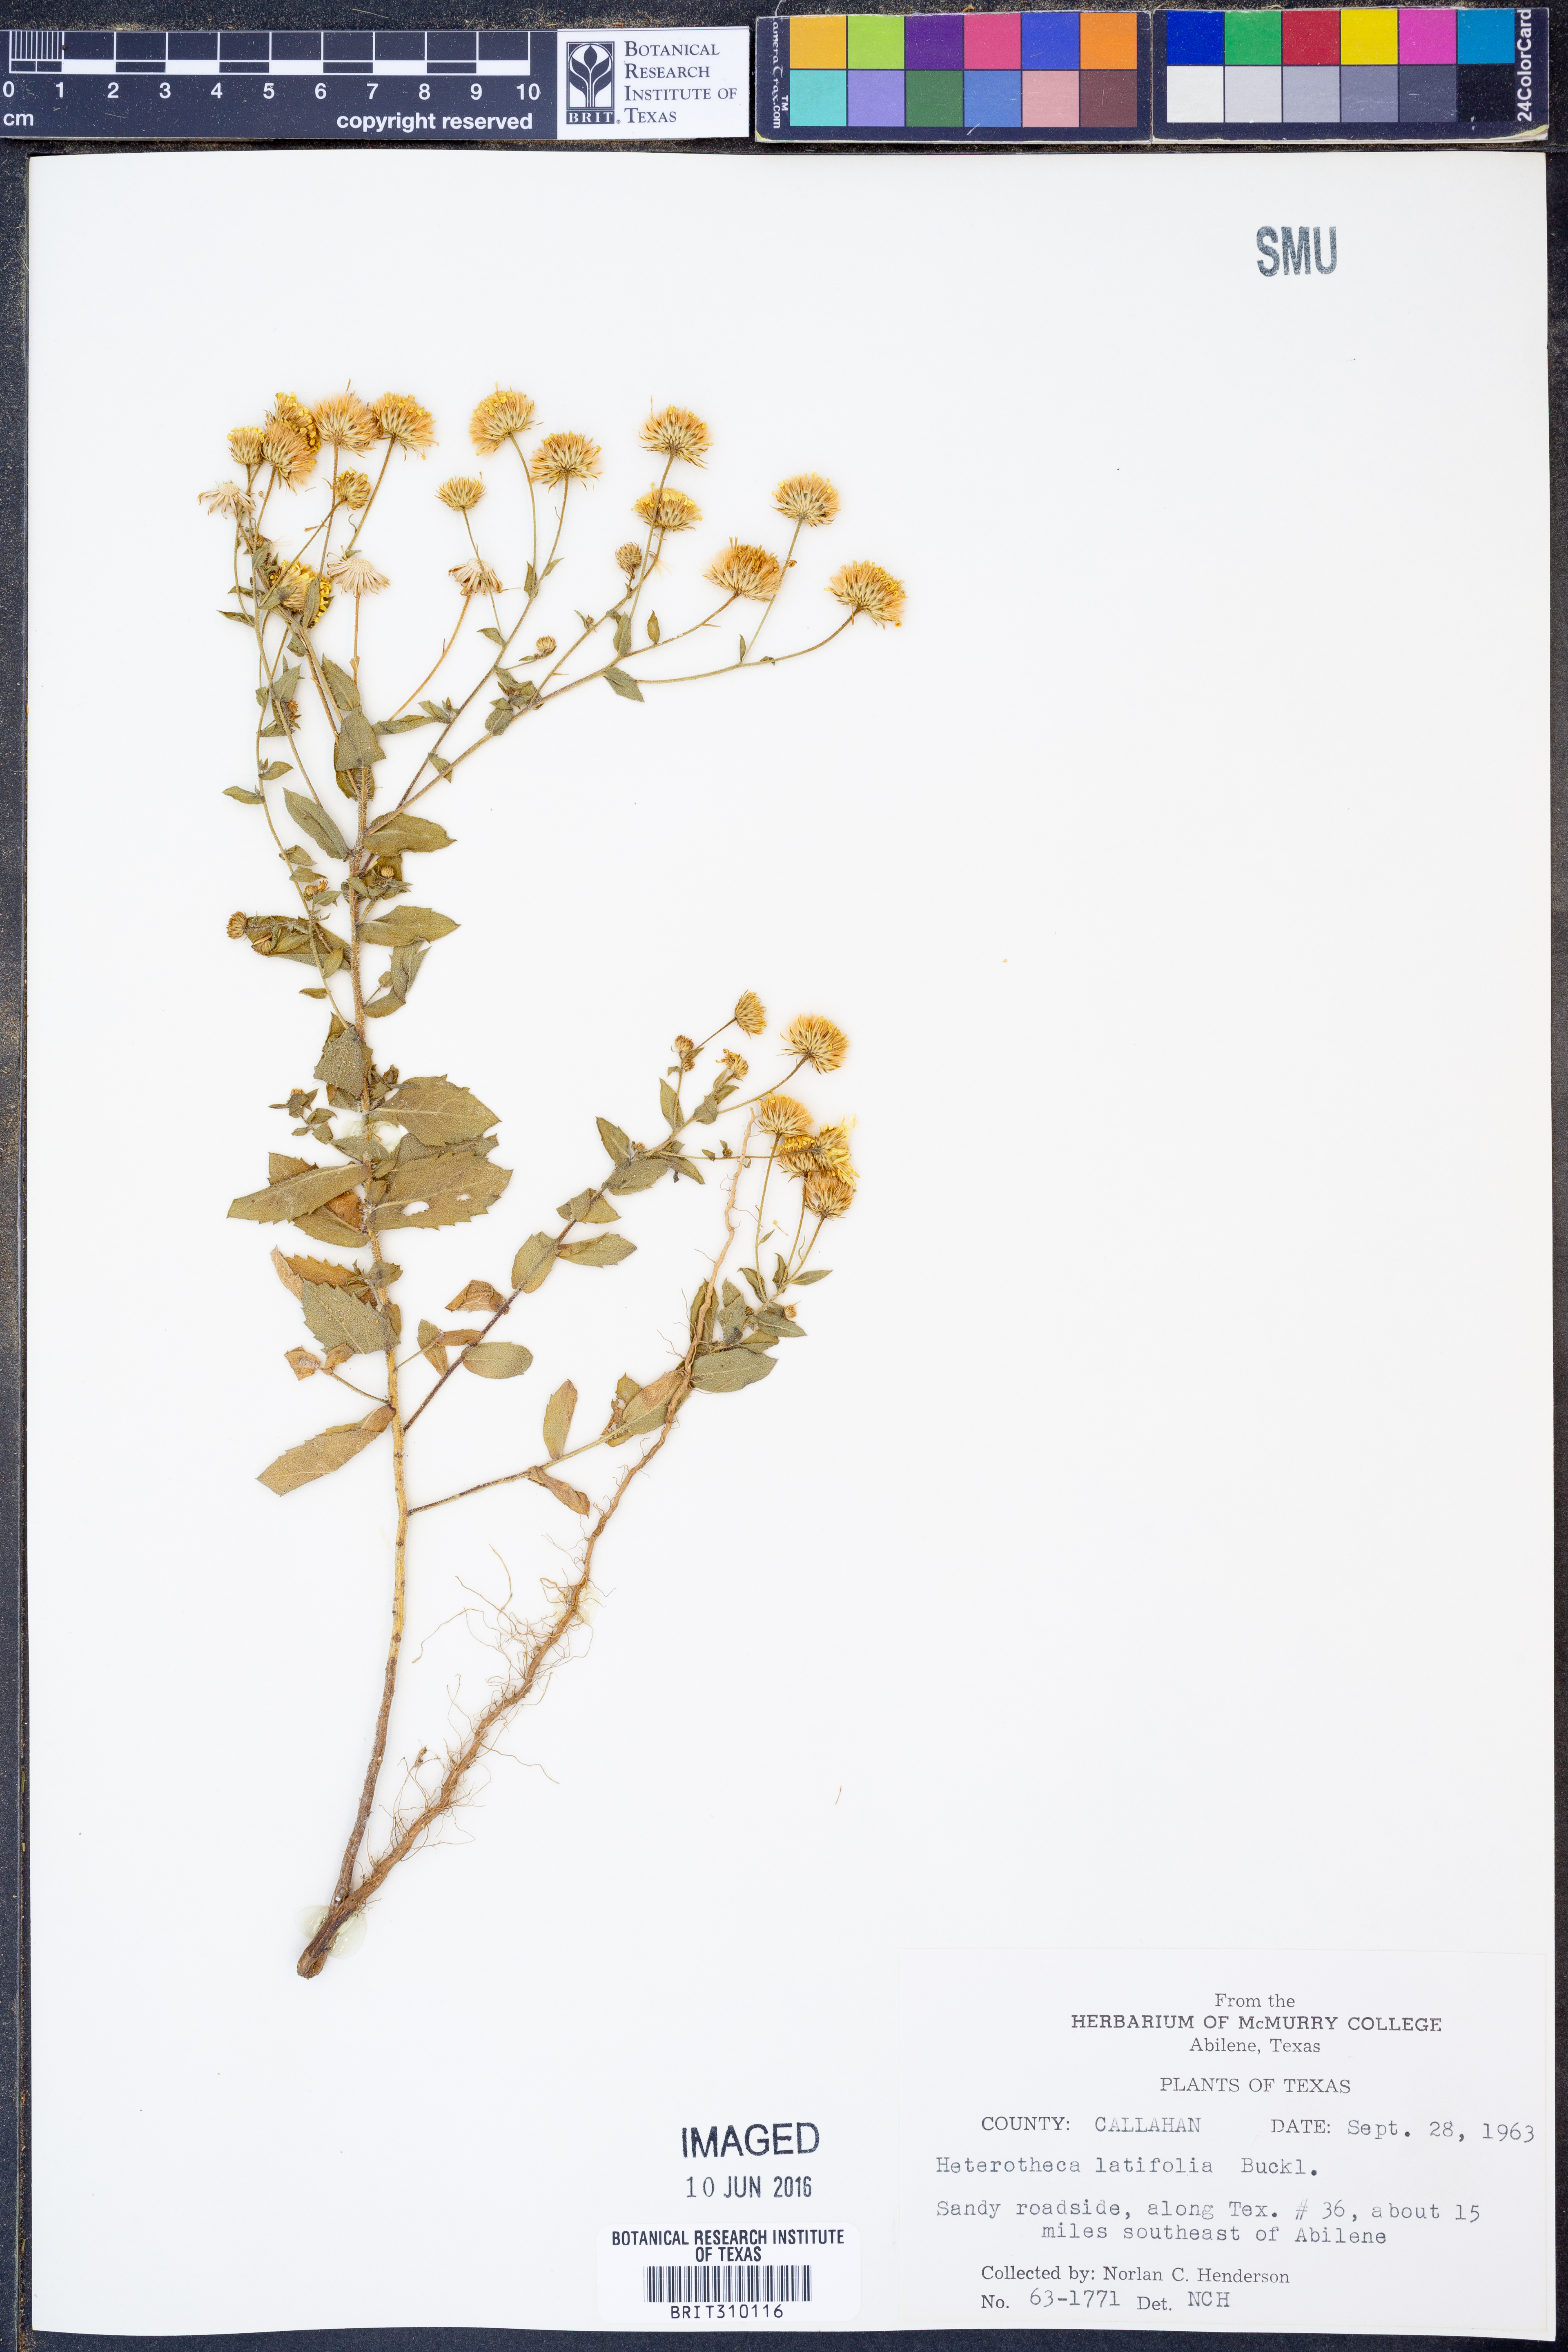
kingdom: Plantae
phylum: Tracheophyta
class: Magnoliopsida
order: Asterales
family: Asteraceae
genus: Heterotheca
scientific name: Heterotheca subaxillaris
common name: Camphorweed
